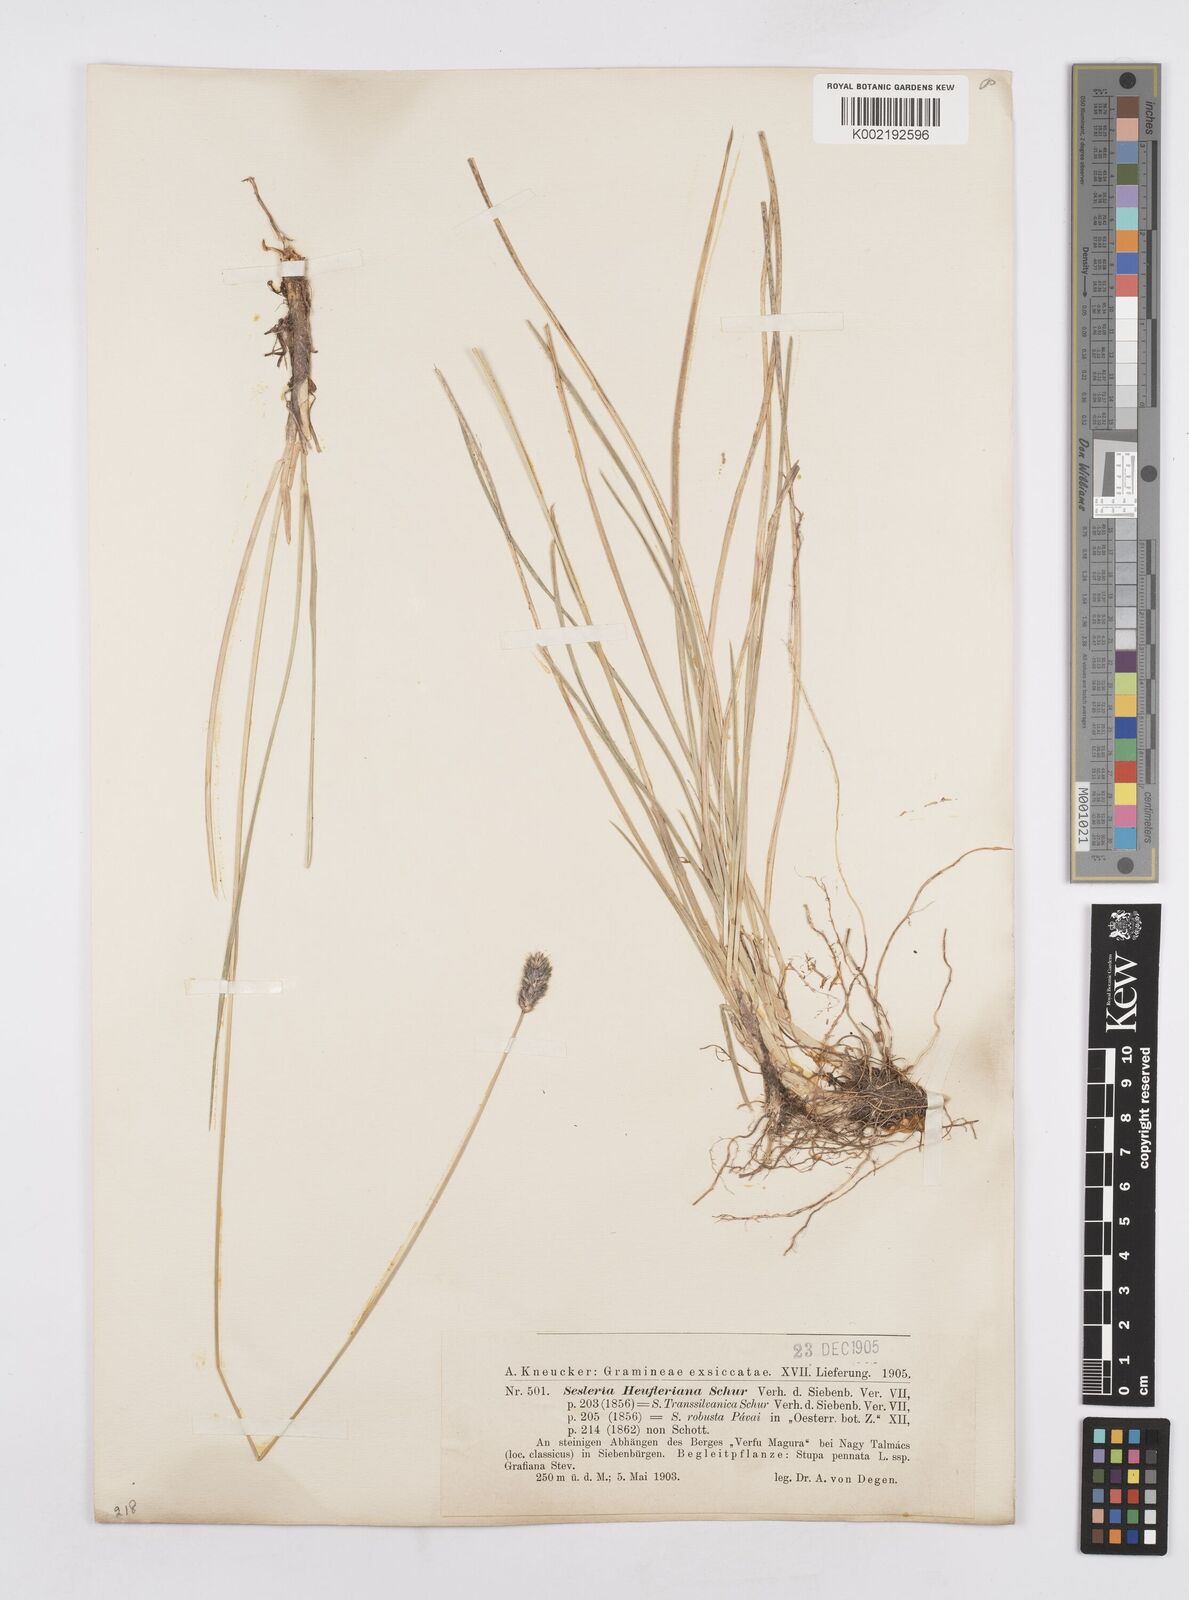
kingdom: Plantae
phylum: Tracheophyta
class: Liliopsida
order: Poales
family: Poaceae
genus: Sesleria
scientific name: Sesleria heufleriana
